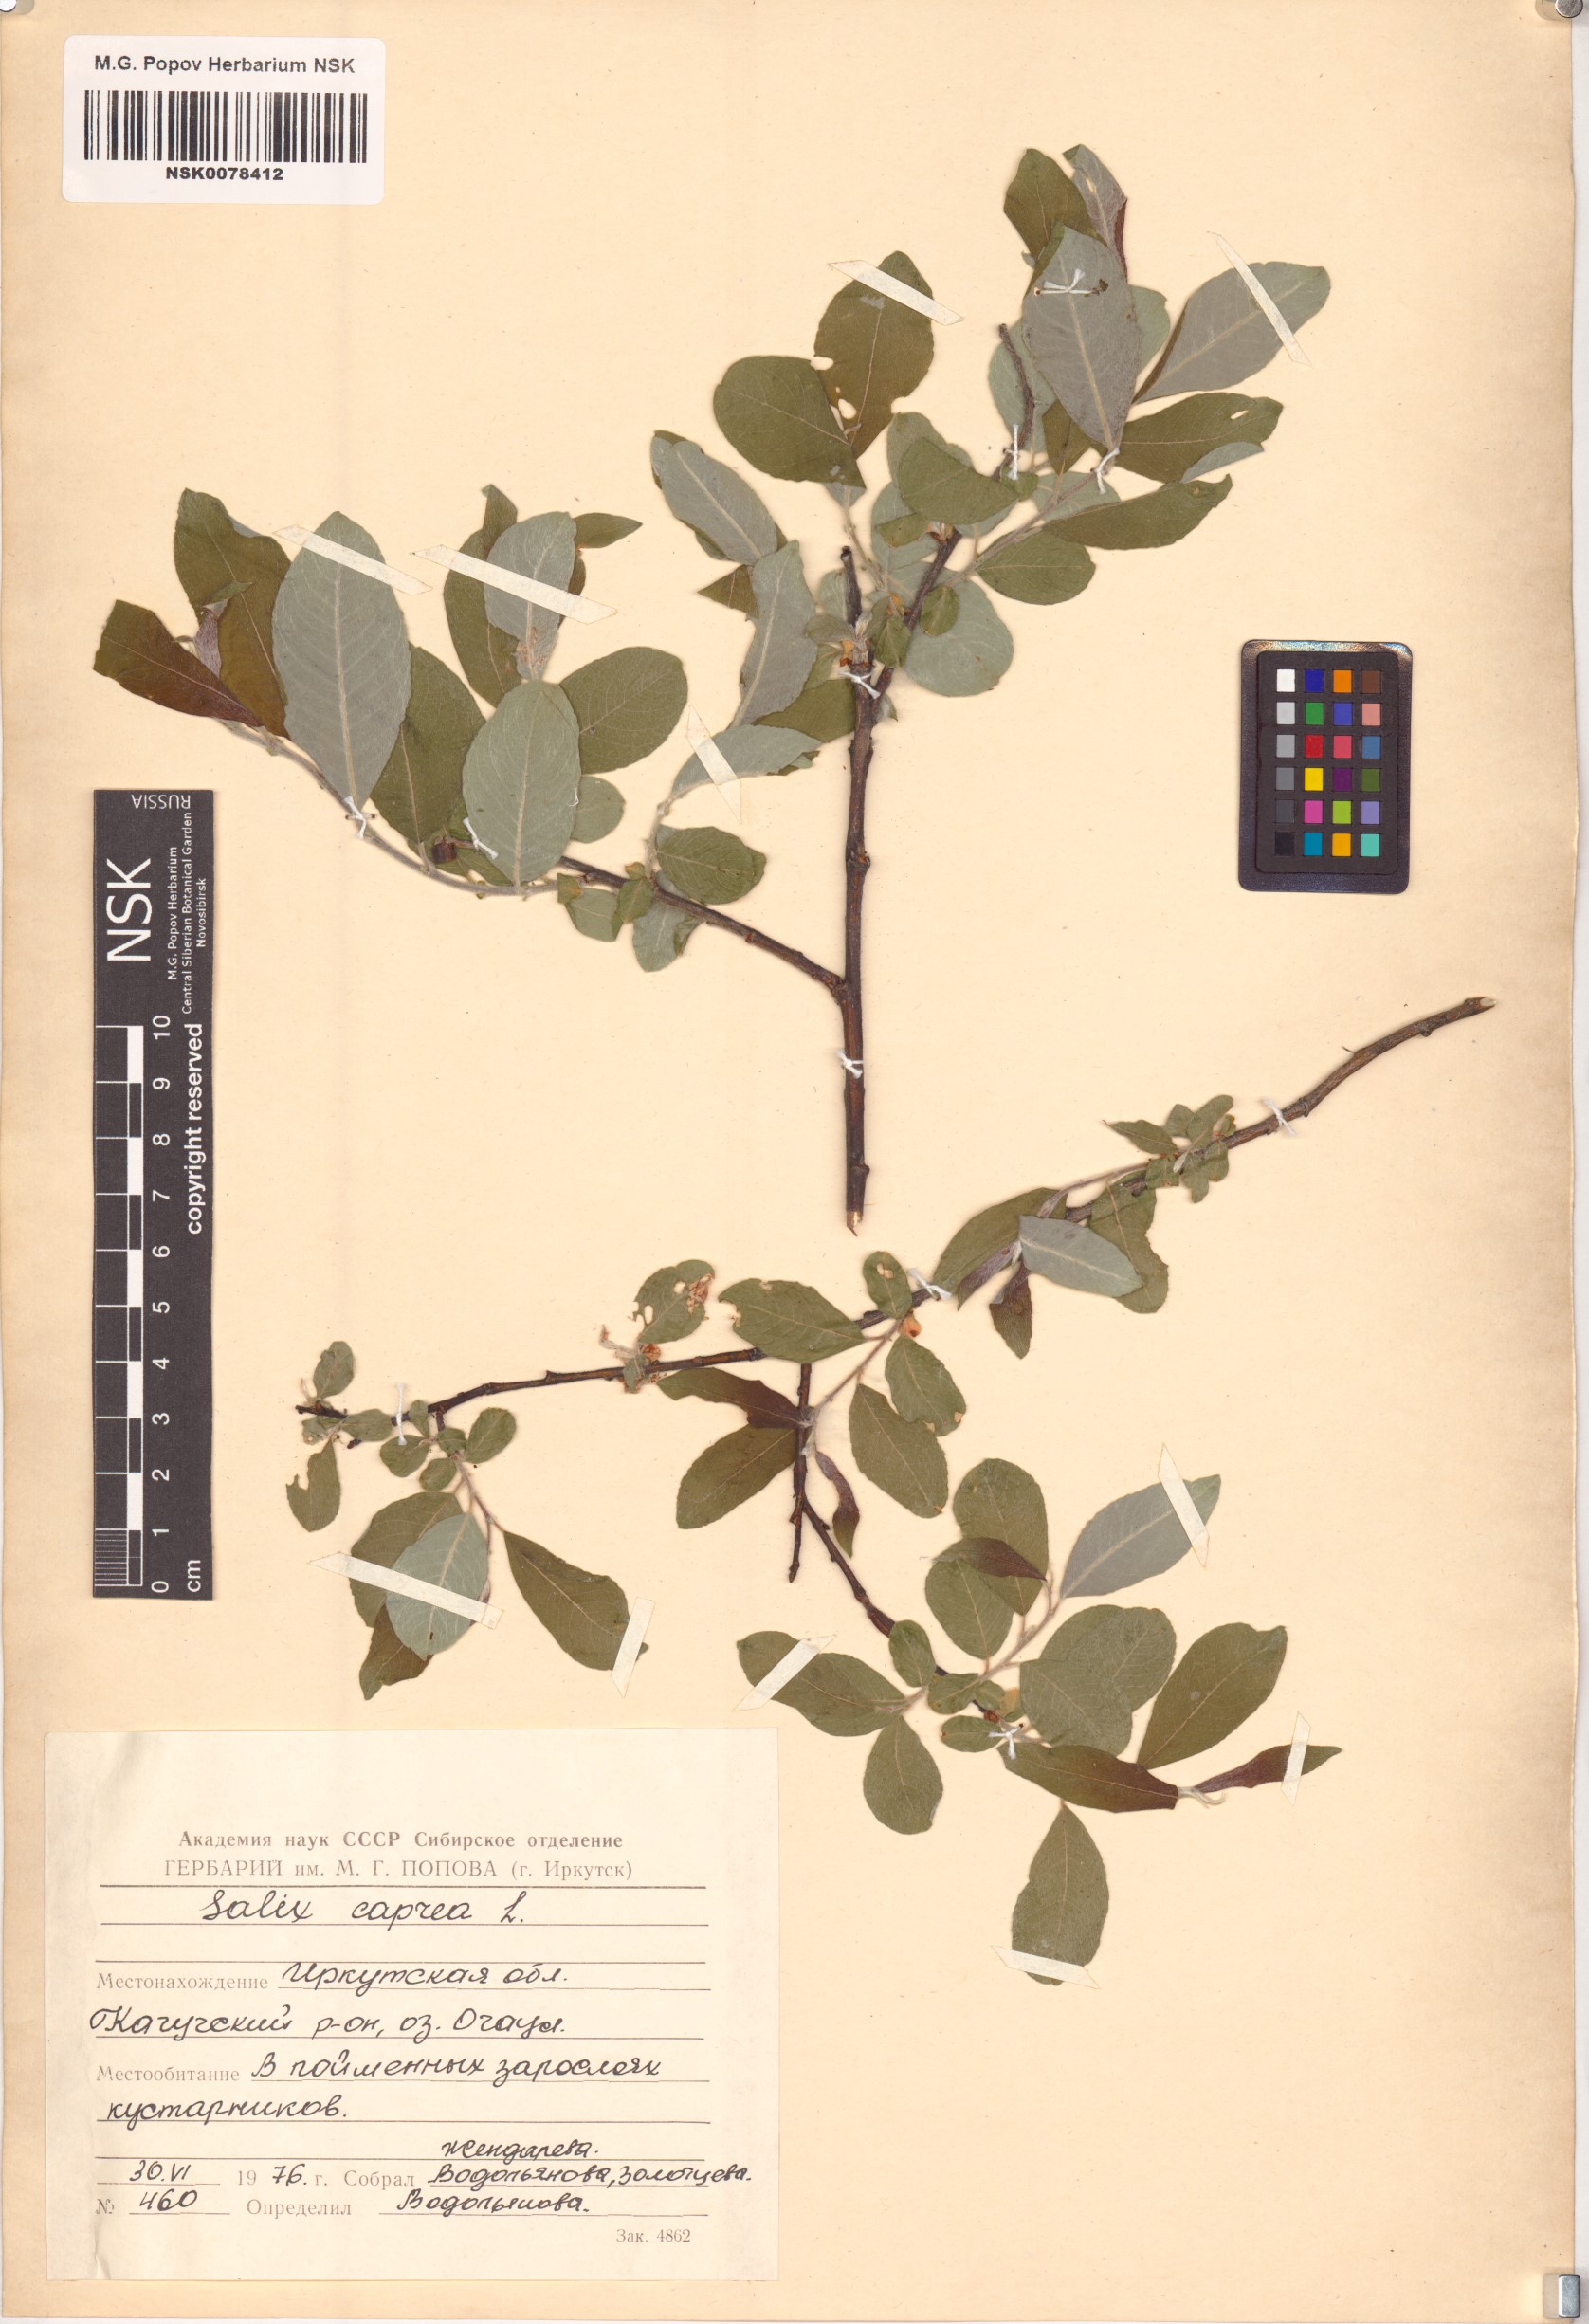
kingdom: Plantae
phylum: Tracheophyta
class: Magnoliopsida
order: Malpighiales
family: Salicaceae
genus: Salix
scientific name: Salix caprea
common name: Goat willow
